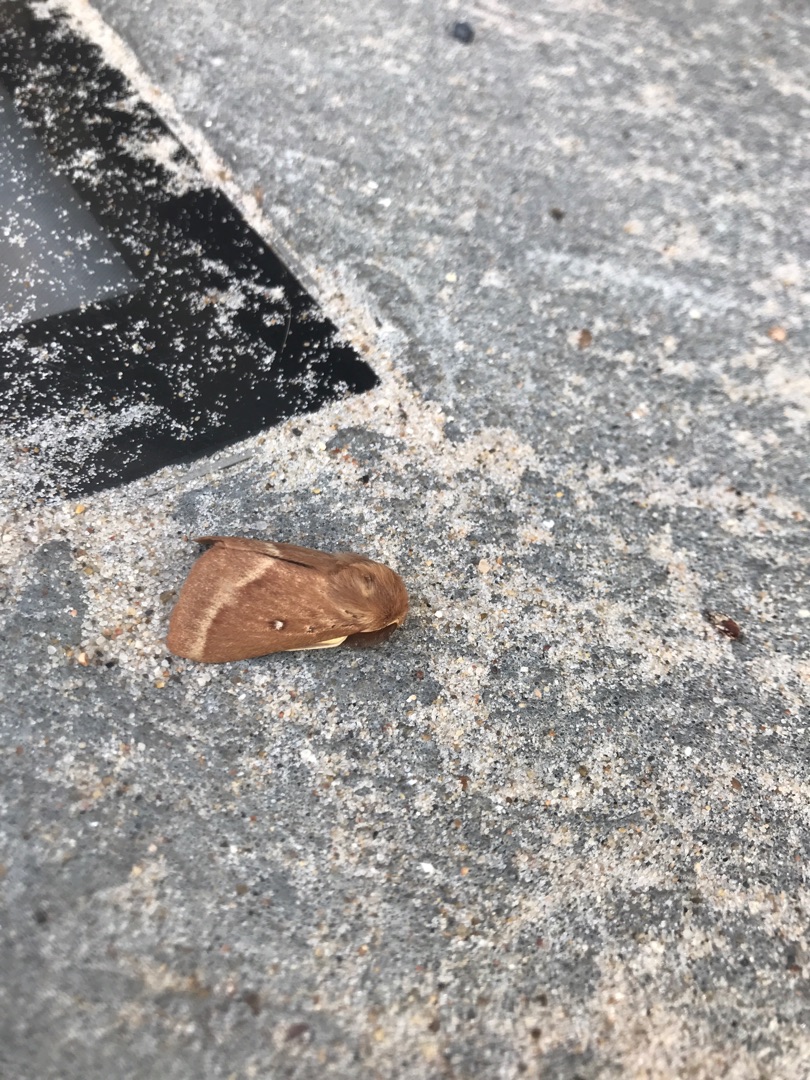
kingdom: Animalia
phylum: Arthropoda
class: Insecta
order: Lepidoptera
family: Lasiocampidae
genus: Lasiocampa
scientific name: Lasiocampa trifolii
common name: Kløverspinder
